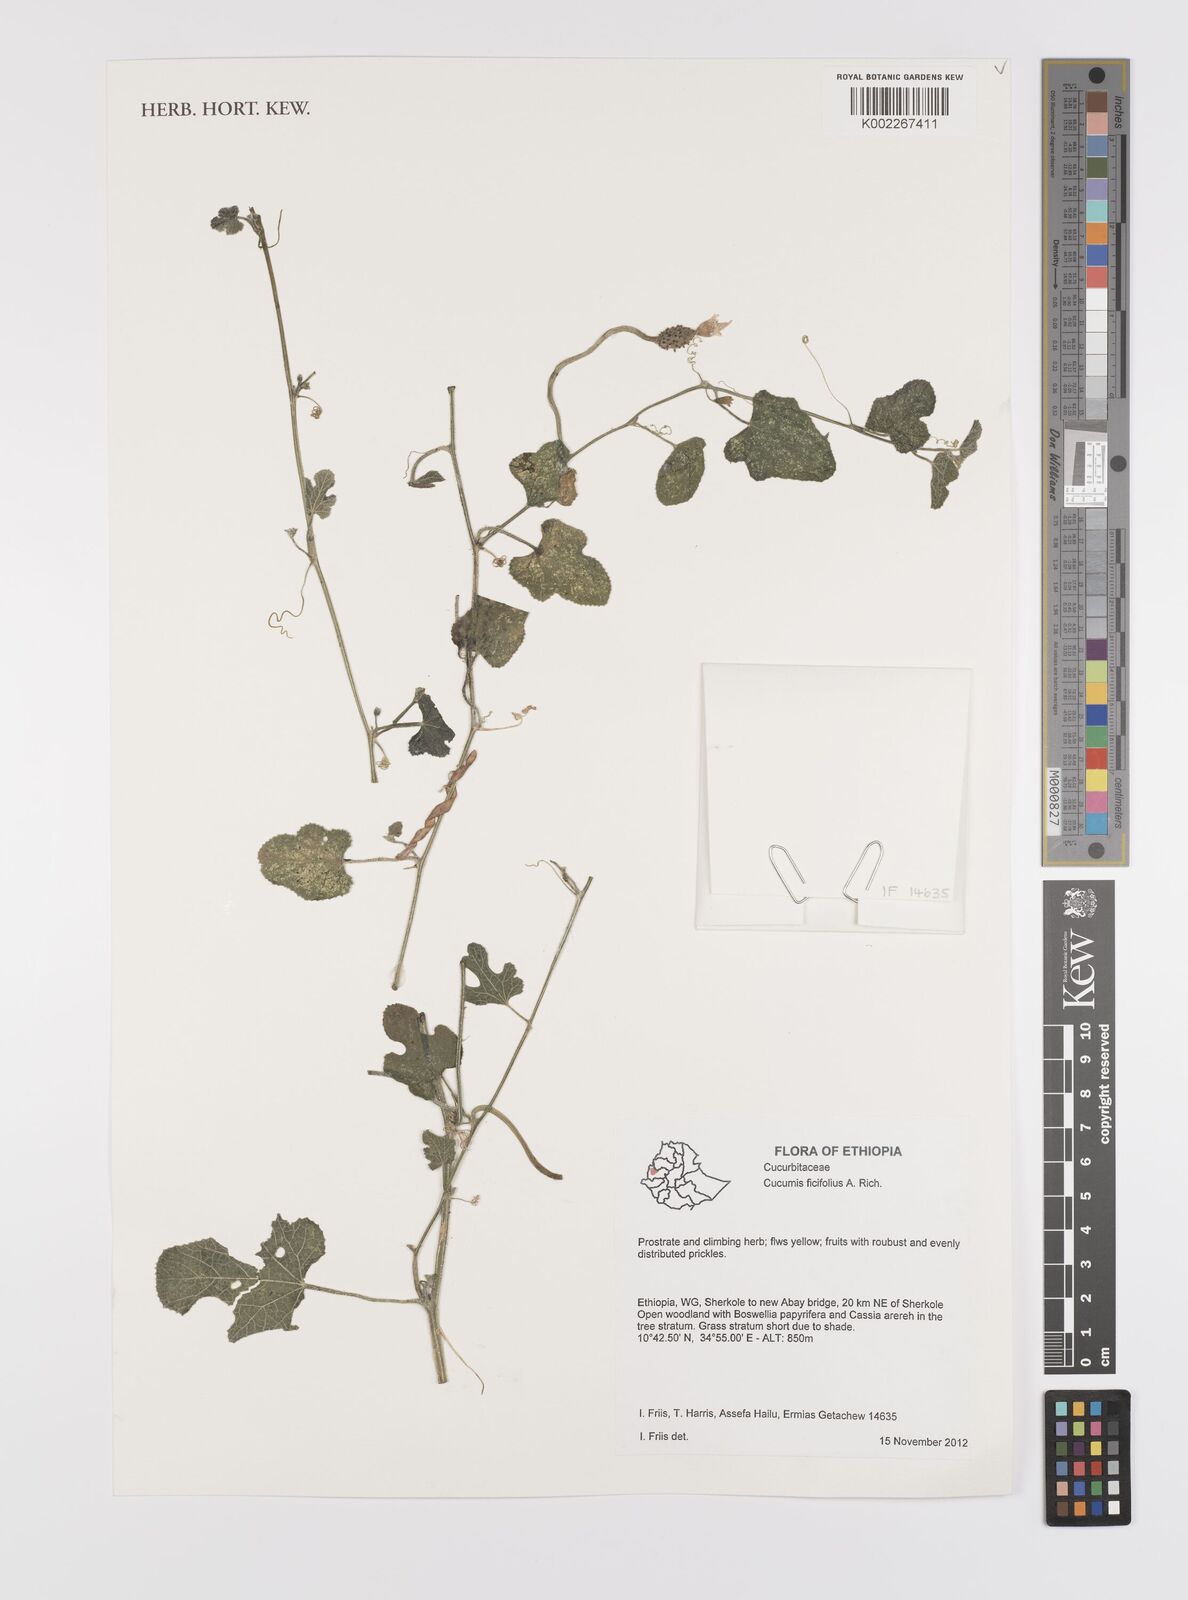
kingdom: Plantae
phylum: Tracheophyta
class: Magnoliopsida
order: Cucurbitales
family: Cucurbitaceae
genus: Cucumis
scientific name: Cucumis ficifolius
